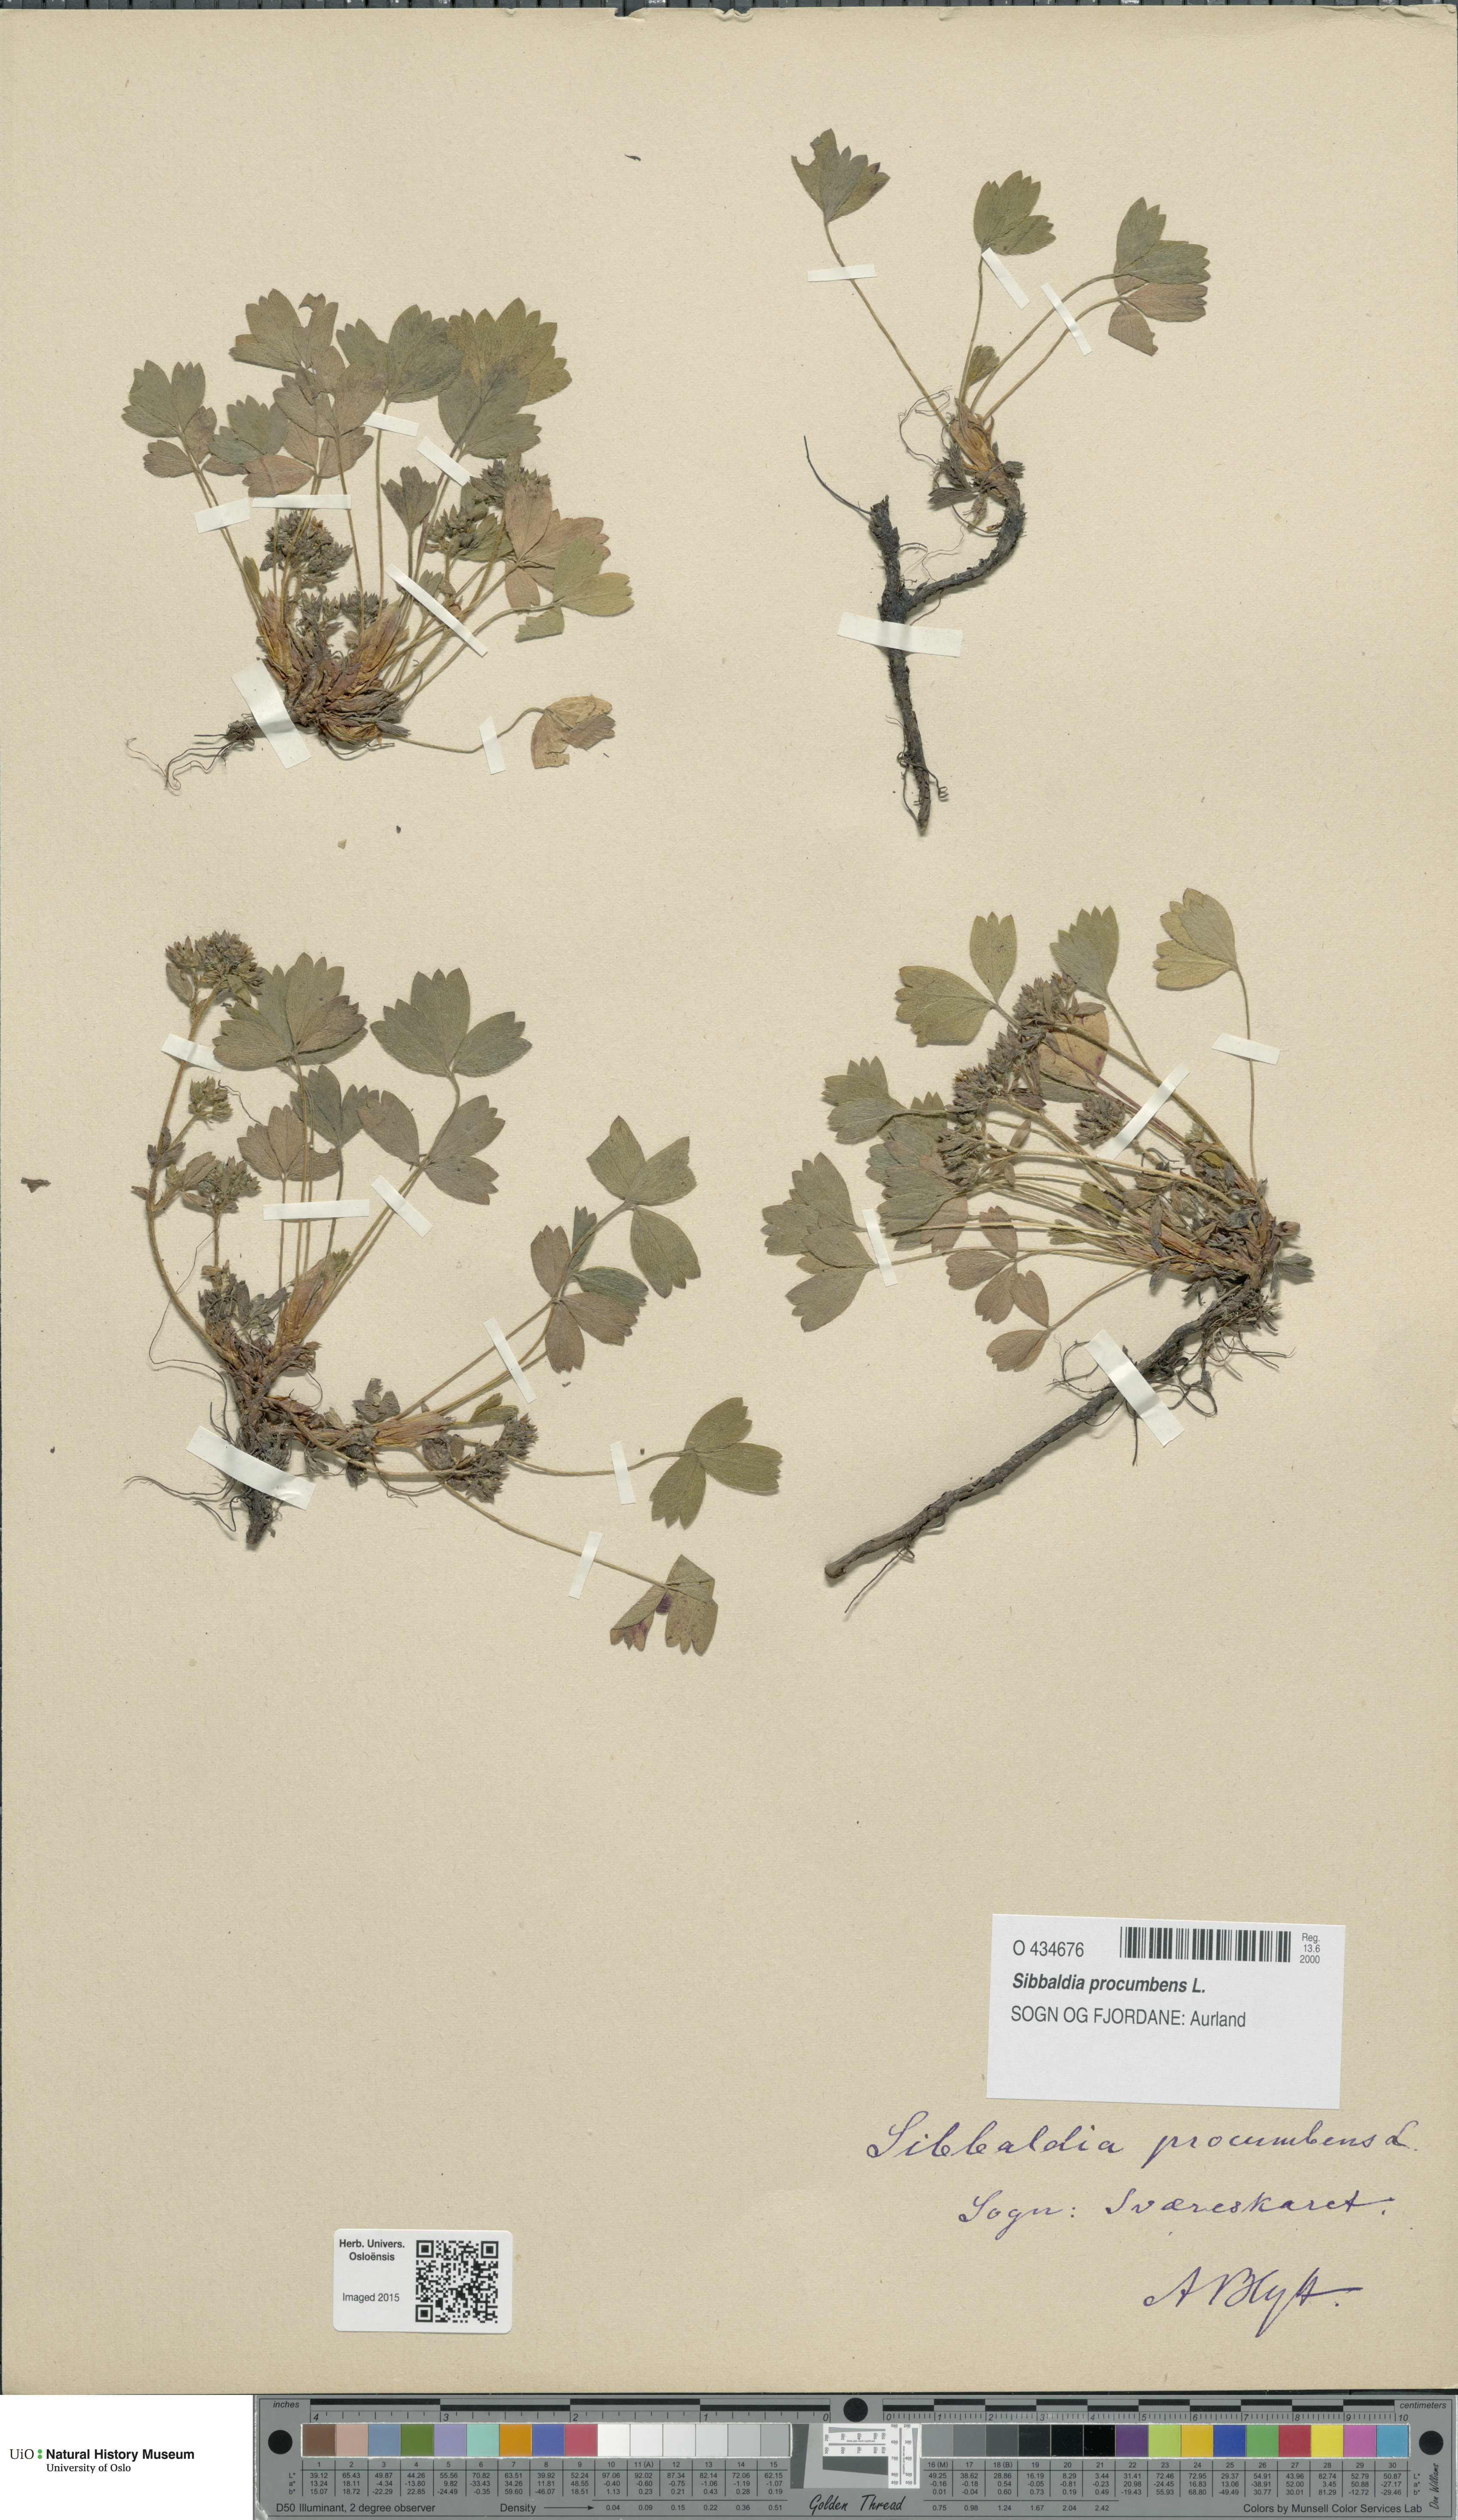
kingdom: Plantae
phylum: Tracheophyta
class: Magnoliopsida
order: Rosales
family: Rosaceae
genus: Sibbaldia
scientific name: Sibbaldia procumbens
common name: Creeping sibbaldia
